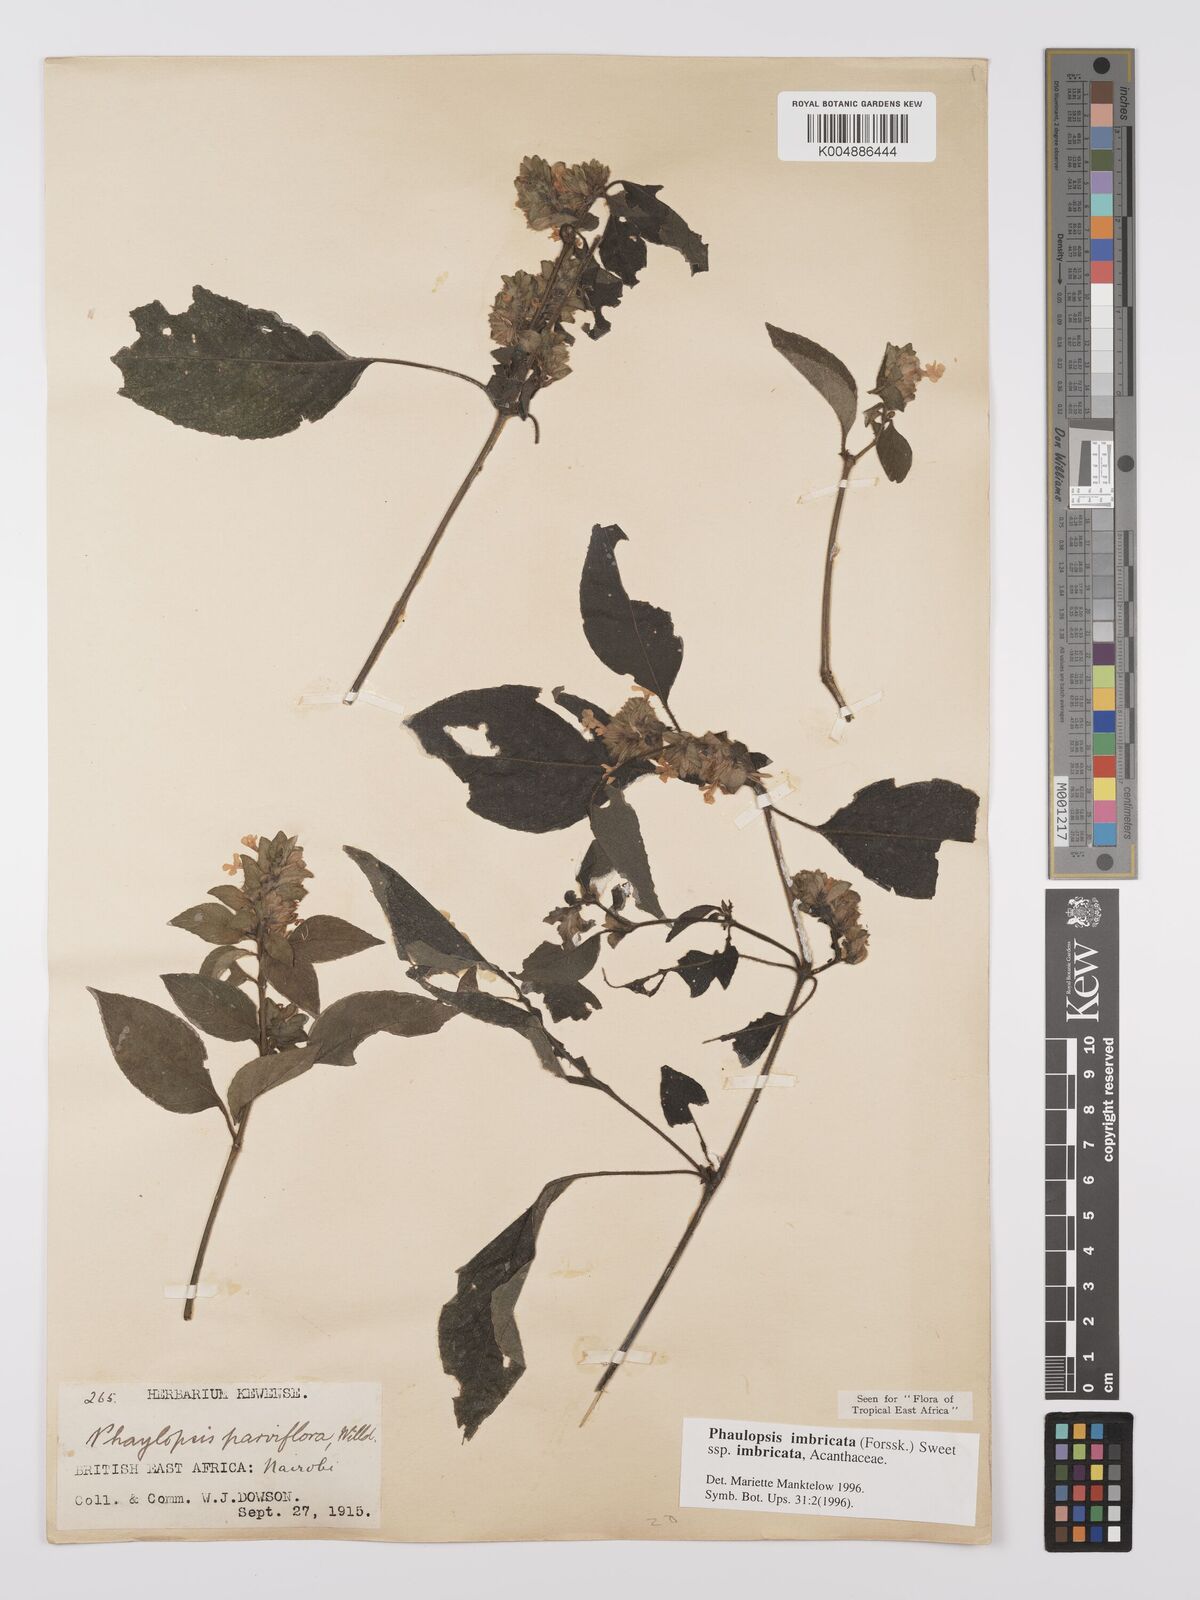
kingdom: Plantae
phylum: Tracheophyta
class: Magnoliopsida
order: Lamiales
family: Acanthaceae
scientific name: Acanthaceae
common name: Acanthaceae
